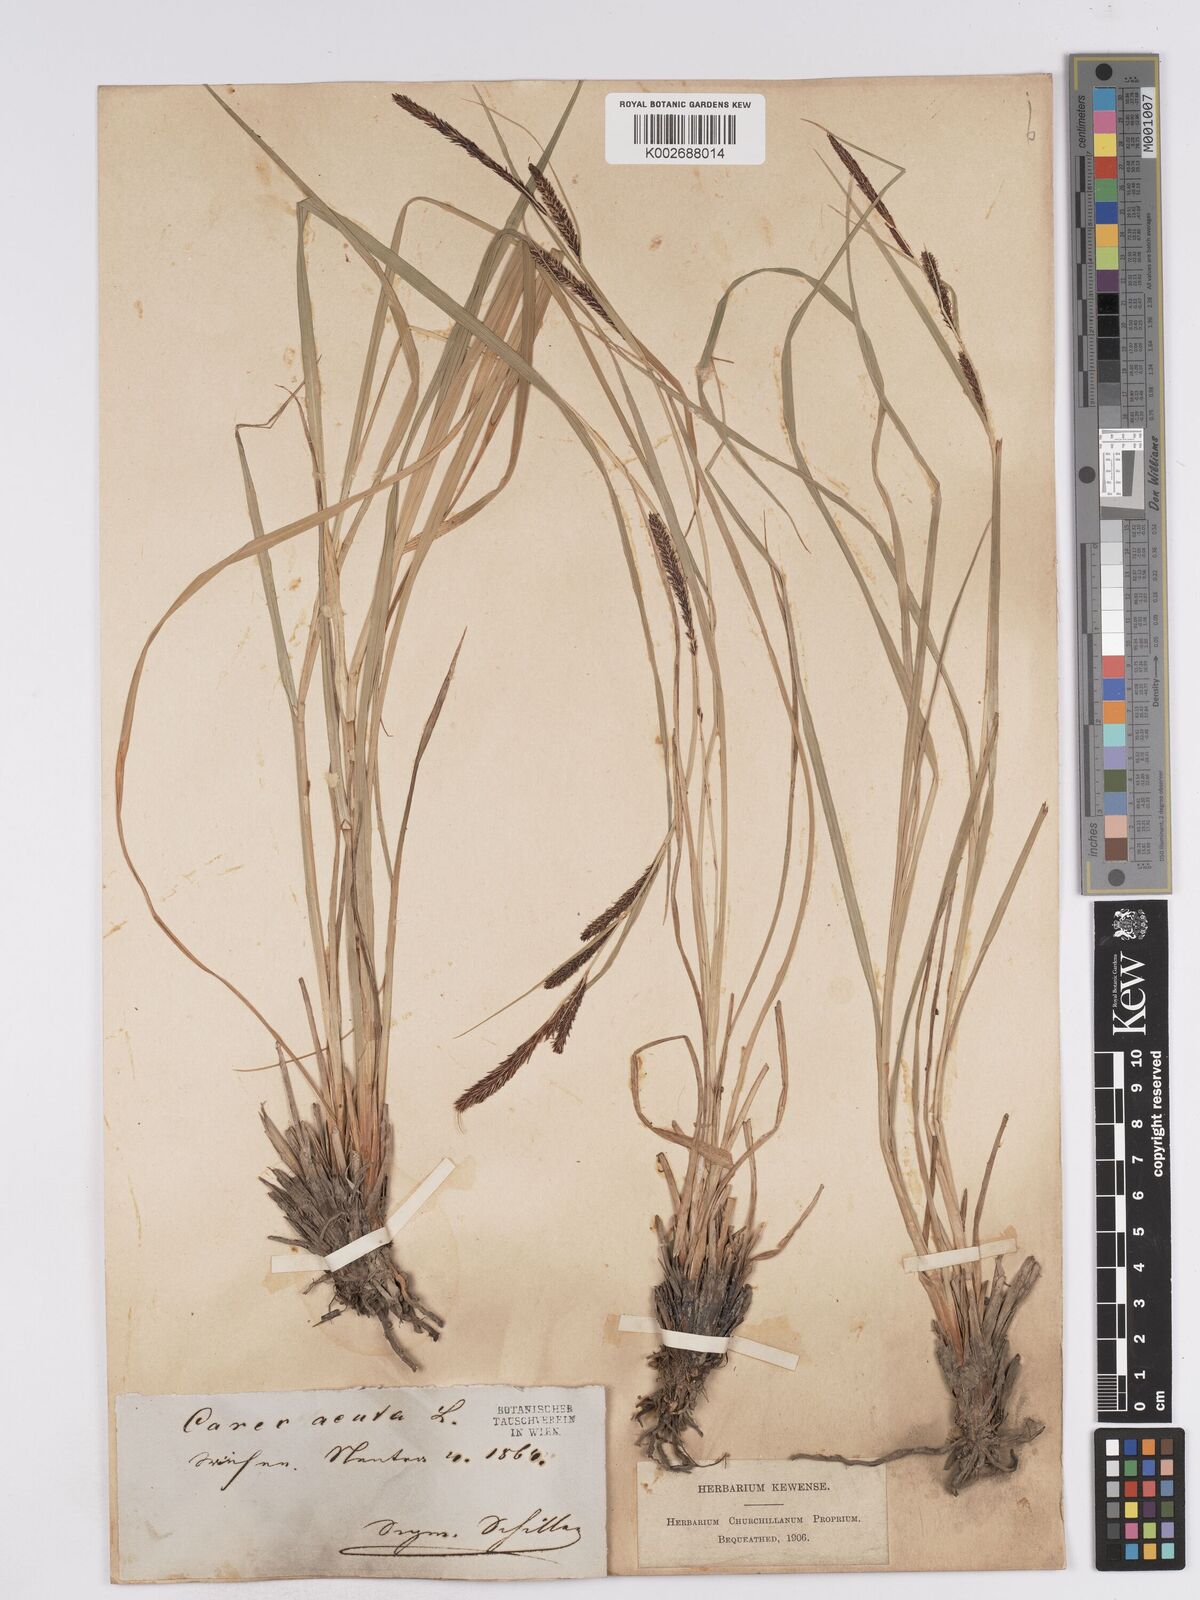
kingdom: Plantae
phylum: Tracheophyta
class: Liliopsida
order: Poales
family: Cyperaceae
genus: Carex
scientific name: Carex acuta
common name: Slender tufted-sedge
